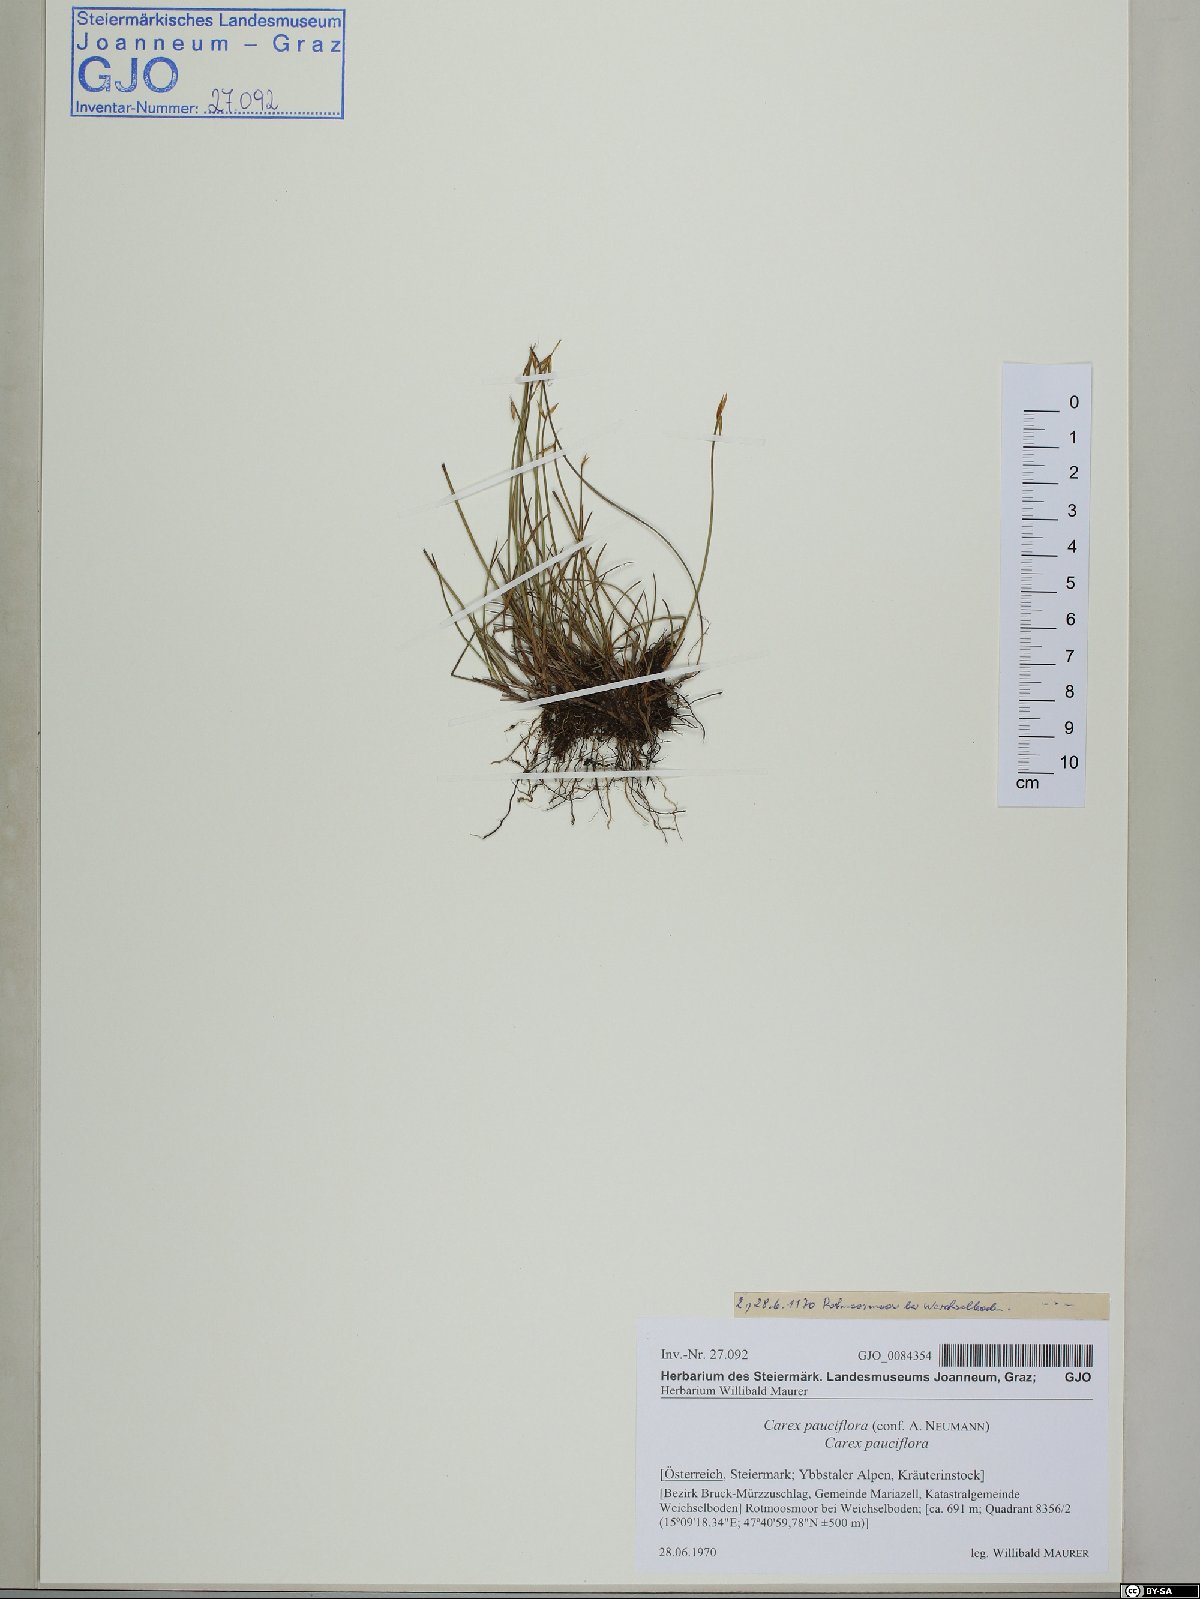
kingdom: Plantae
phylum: Tracheophyta
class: Liliopsida
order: Poales
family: Cyperaceae
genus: Carex
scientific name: Carex pauciflora
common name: Few-flowered sedge
